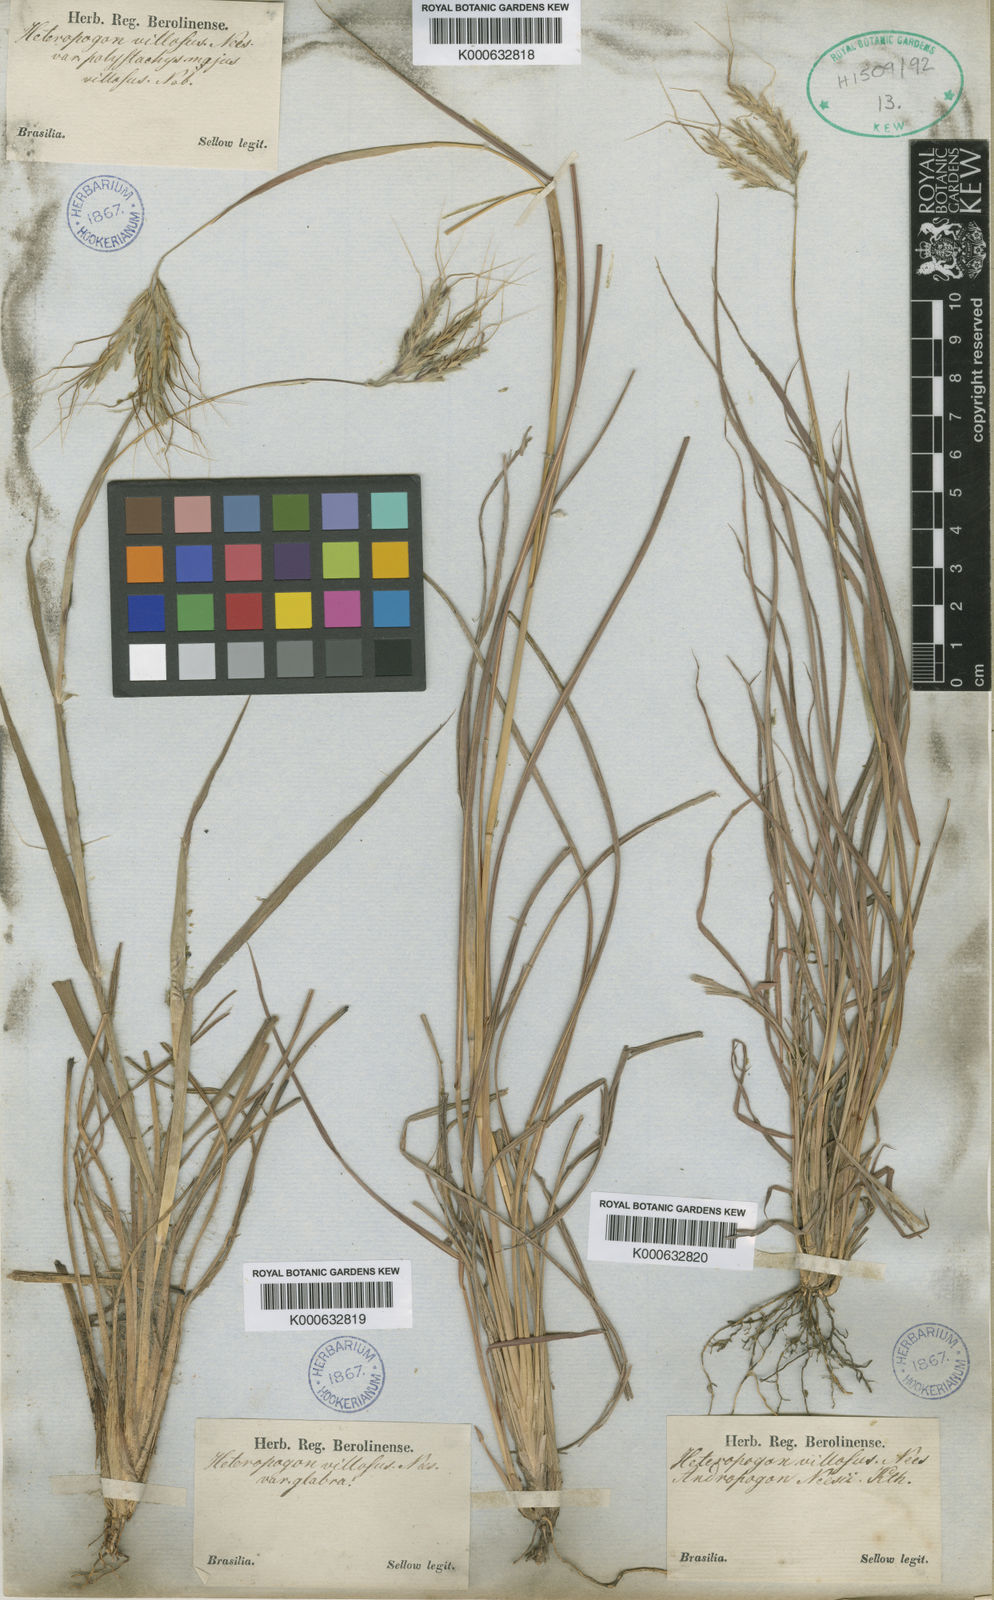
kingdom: Plantae
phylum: Tracheophyta
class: Liliopsida
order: Poales
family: Poaceae
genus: Agenium
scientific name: Agenium villosum
